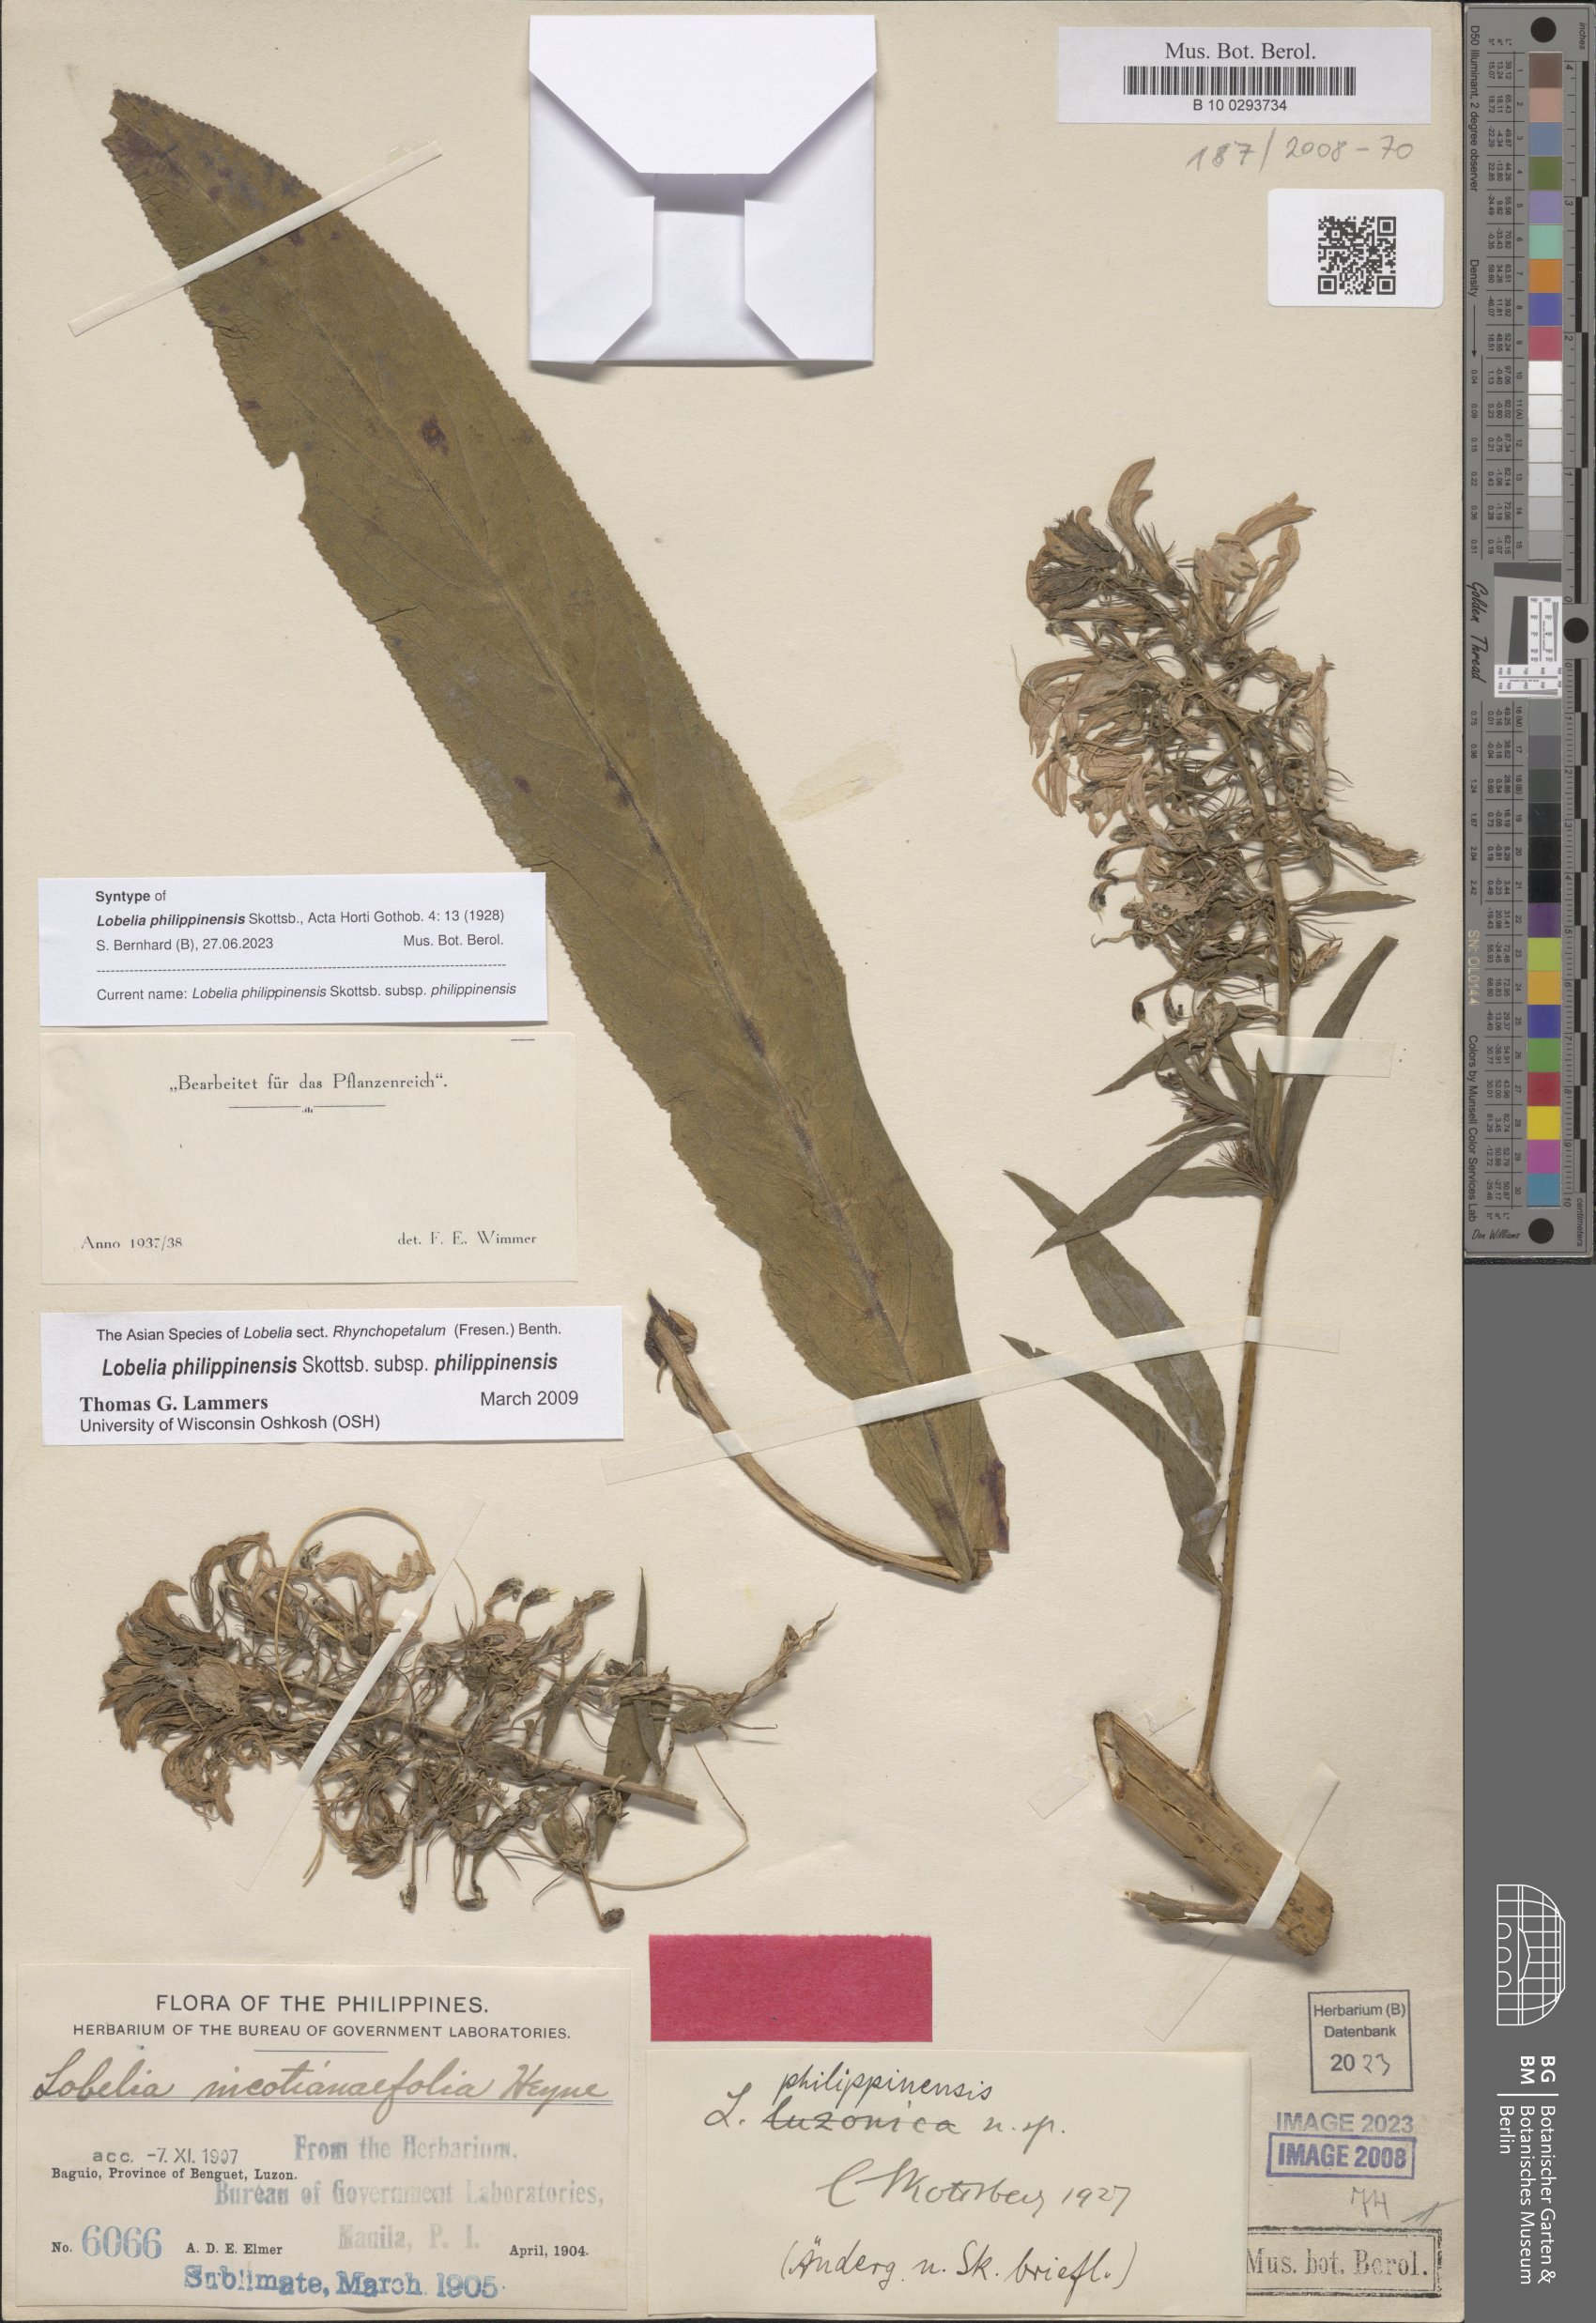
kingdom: Plantae
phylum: Tracheophyta
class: Magnoliopsida
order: Asterales
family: Campanulaceae
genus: Lobelia
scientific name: Lobelia philippinensis
